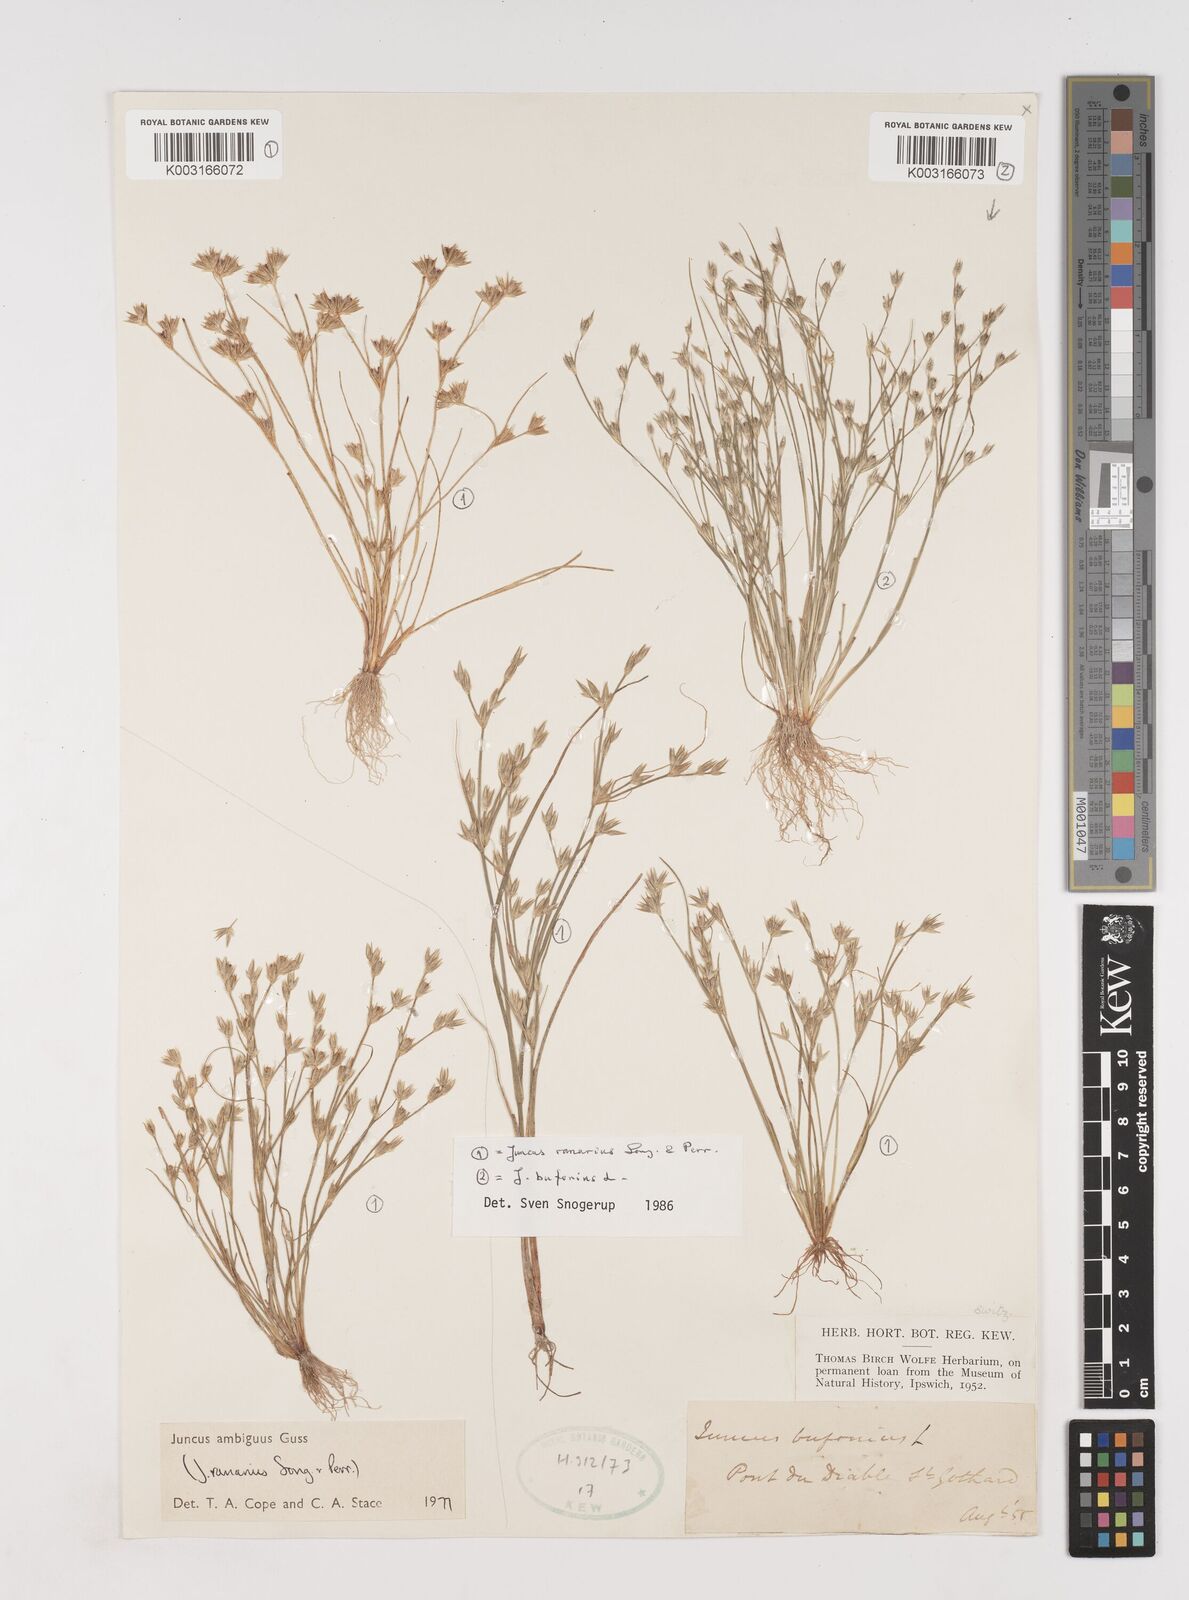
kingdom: Plantae
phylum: Tracheophyta
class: Liliopsida
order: Poales
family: Juncaceae
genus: Juncus
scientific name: Juncus hybridus
